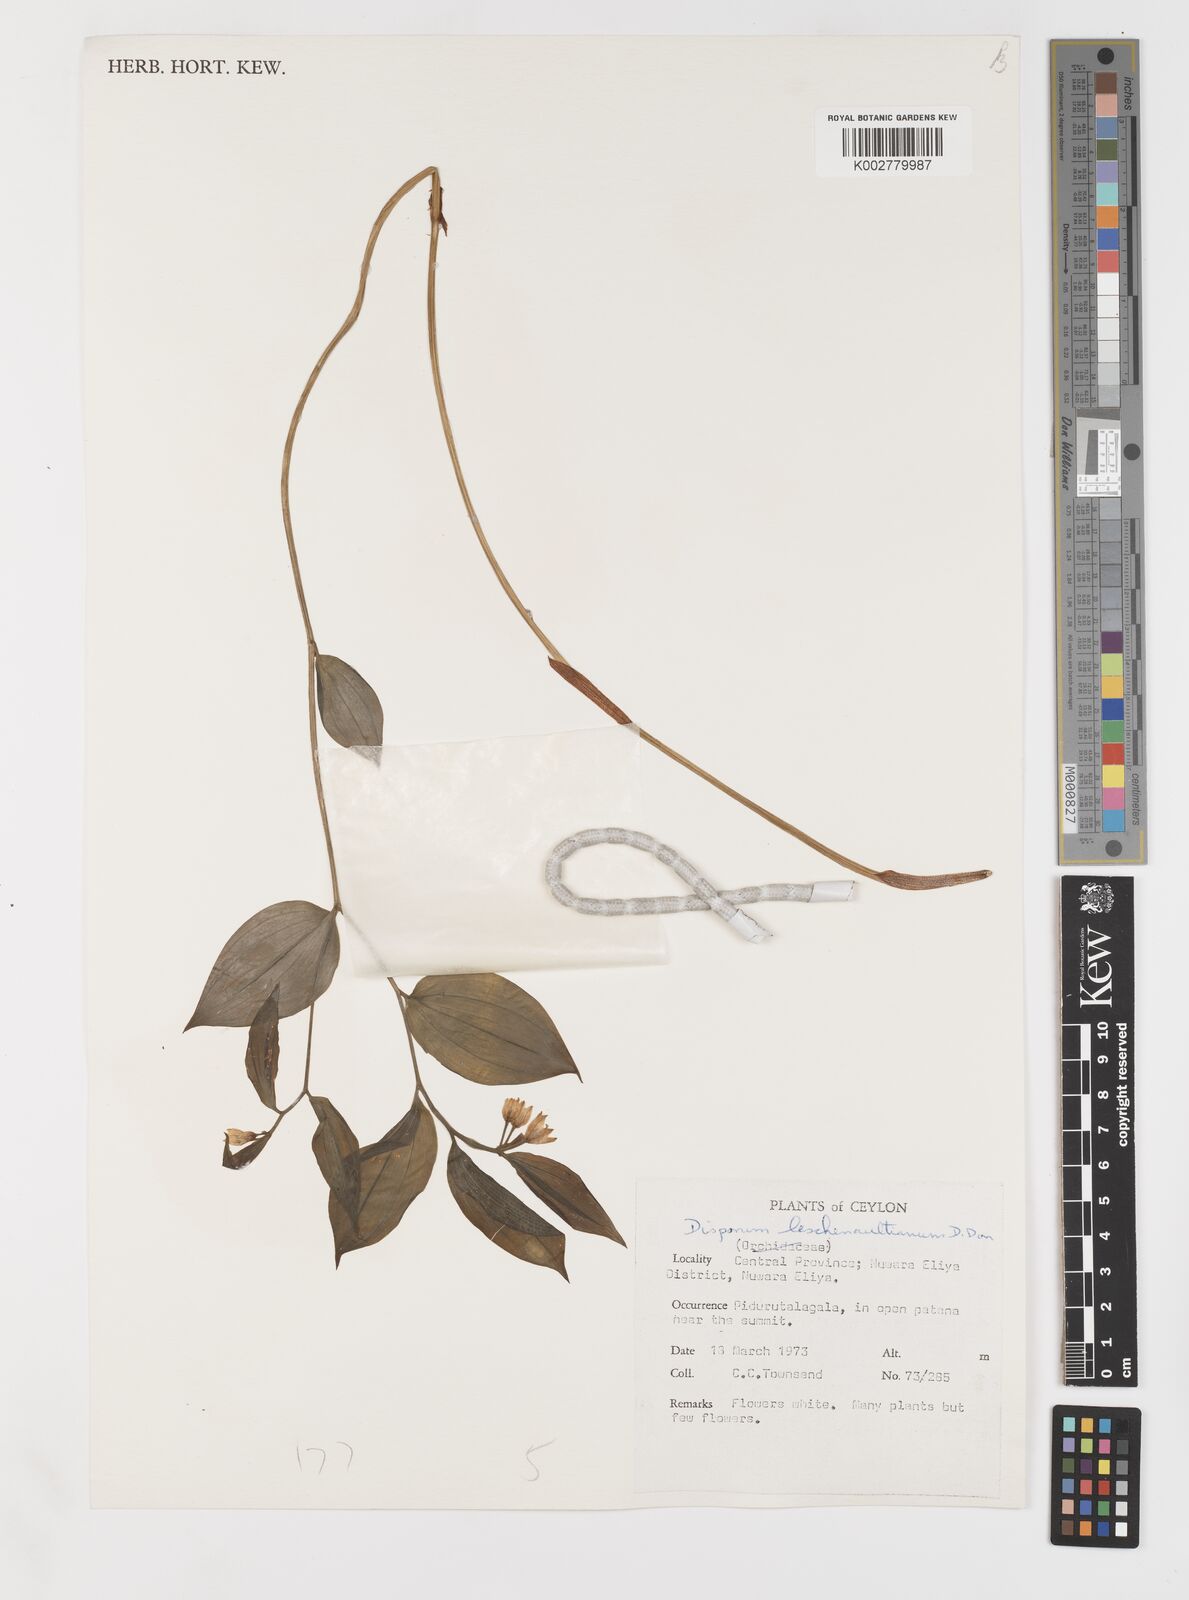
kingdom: Plantae
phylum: Tracheophyta
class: Liliopsida
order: Liliales
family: Colchicaceae
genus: Disporum
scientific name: Disporum cantoniense
